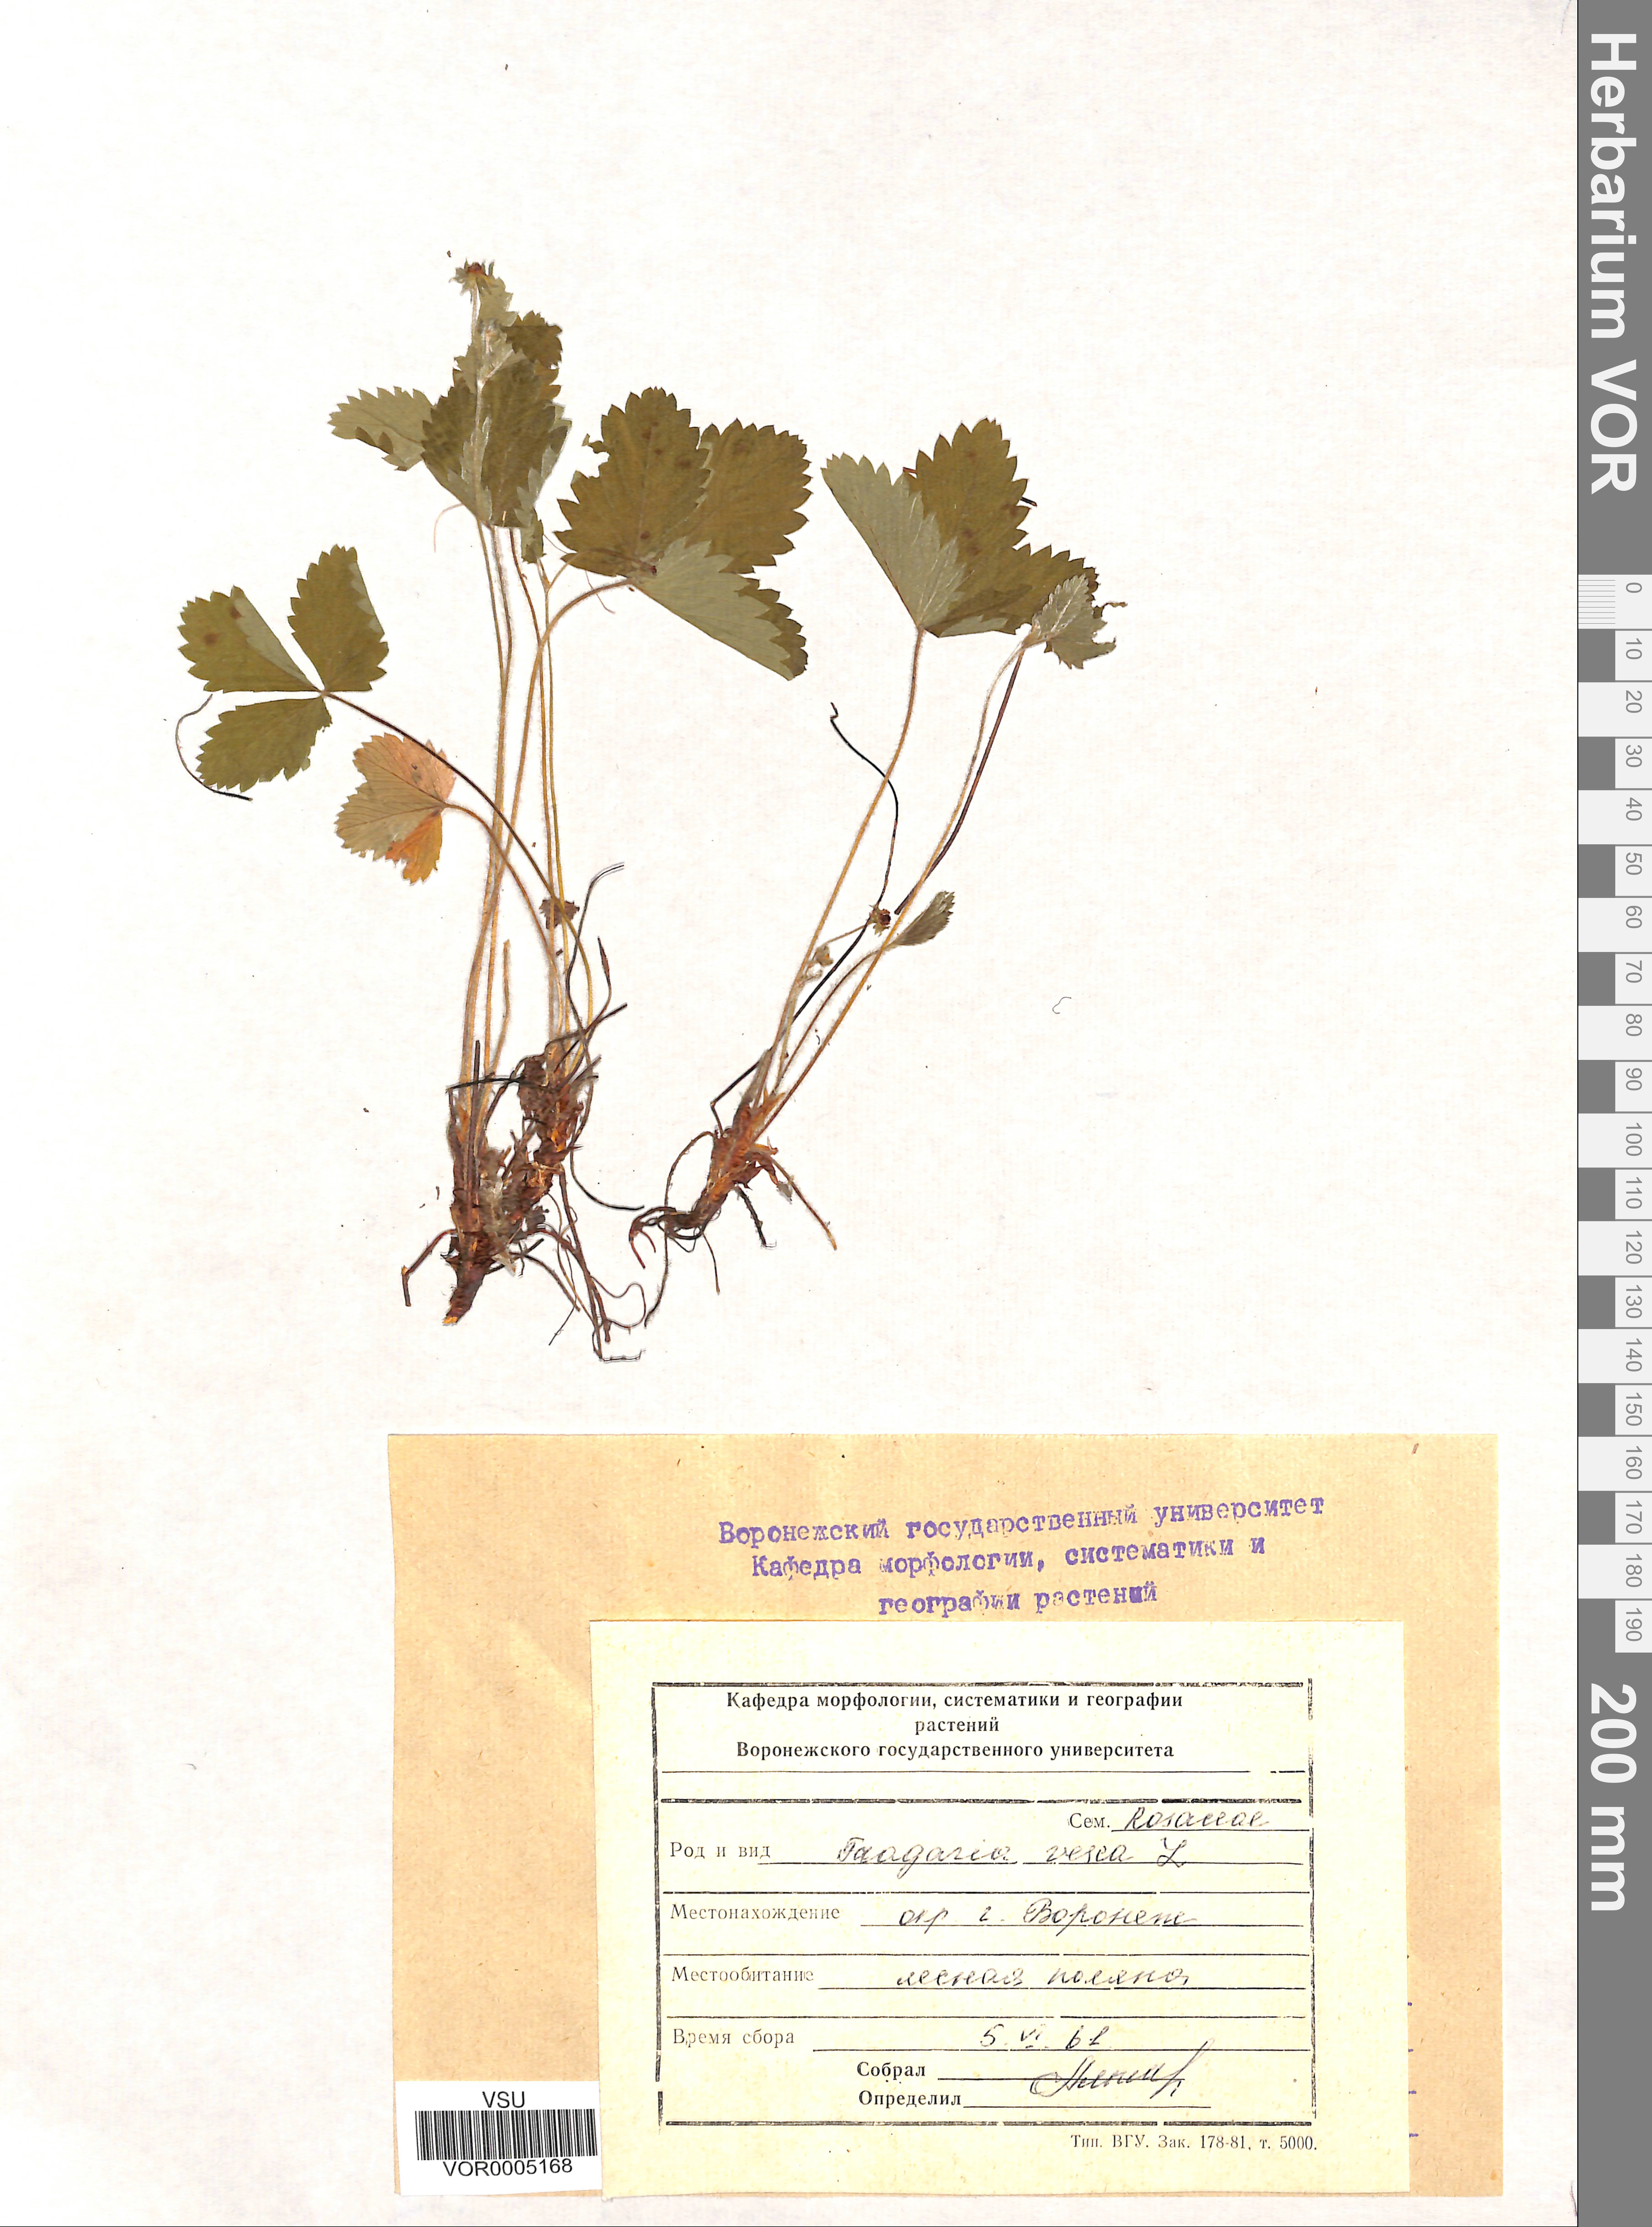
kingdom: Plantae
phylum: Tracheophyta
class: Magnoliopsida
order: Rosales
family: Rosaceae
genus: Fragaria
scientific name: Fragaria vesca
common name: Wild strawberry
